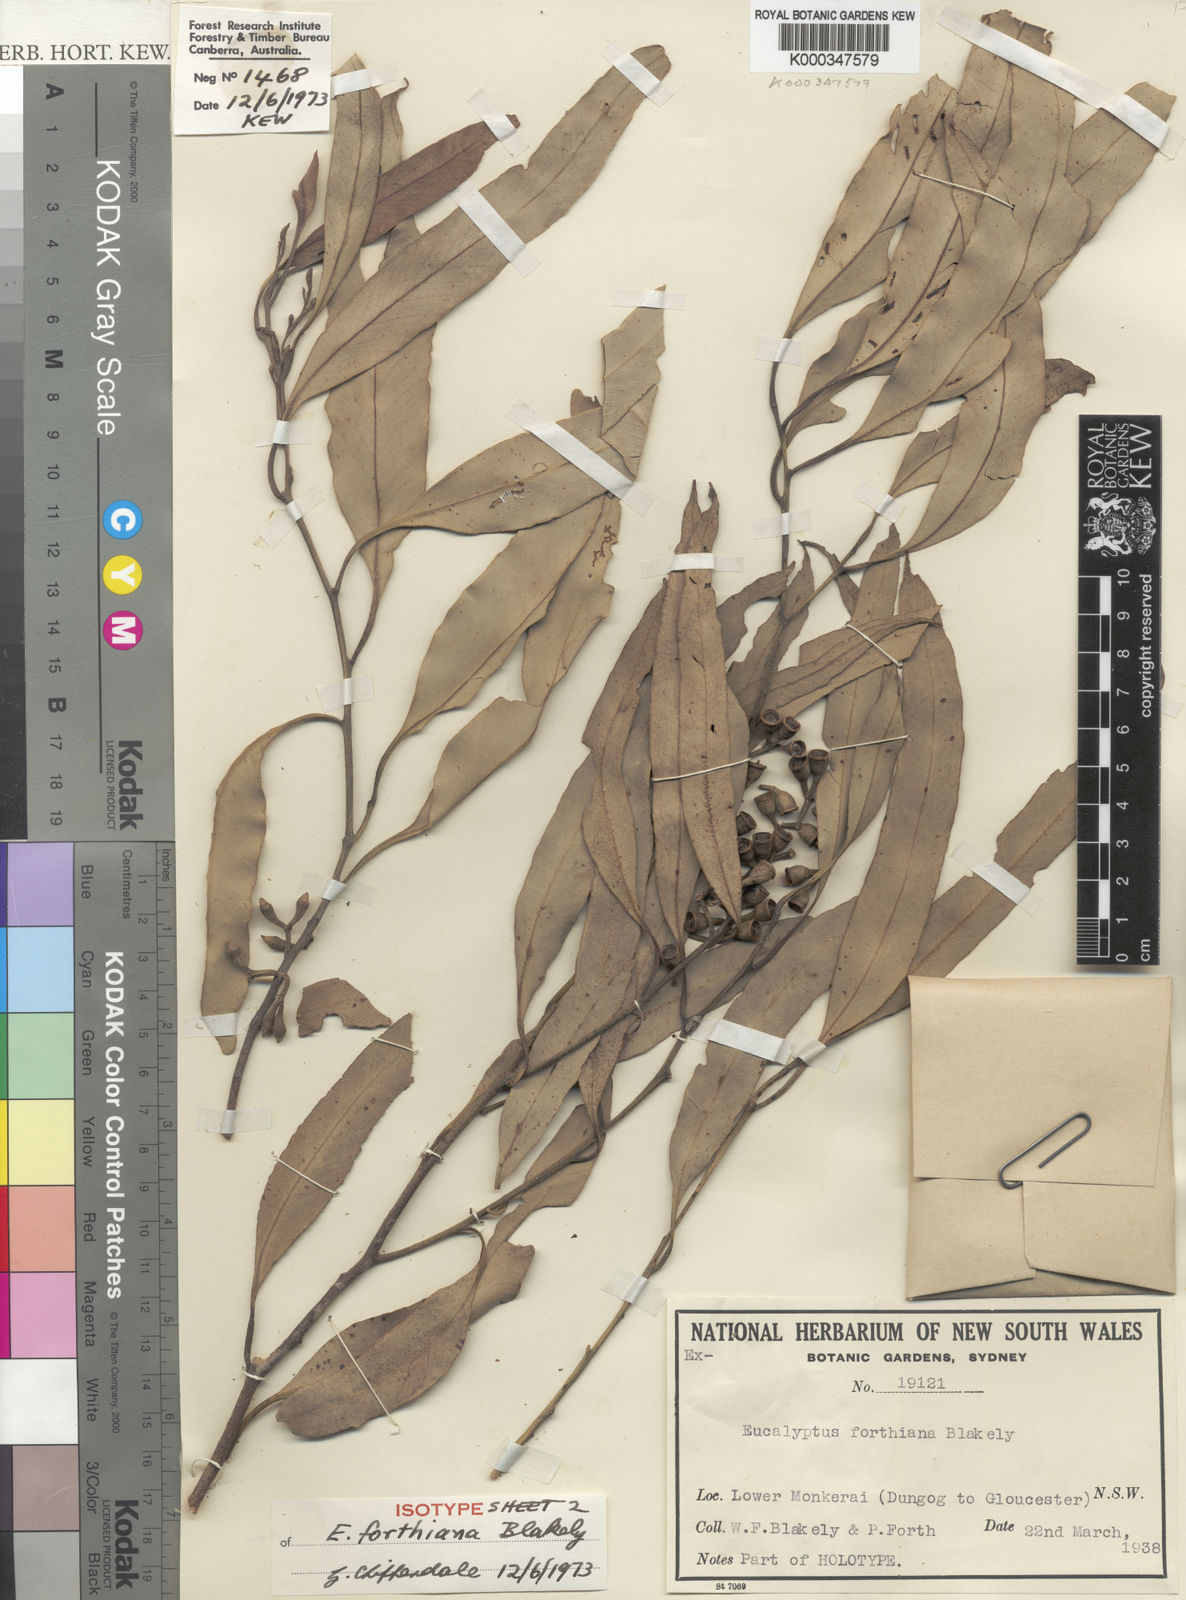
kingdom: Plantae
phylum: Tracheophyta
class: Magnoliopsida
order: Myrtales
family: Myrtaceae
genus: Eucalyptus
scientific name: Eucalyptus moluccana
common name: Grey-box
